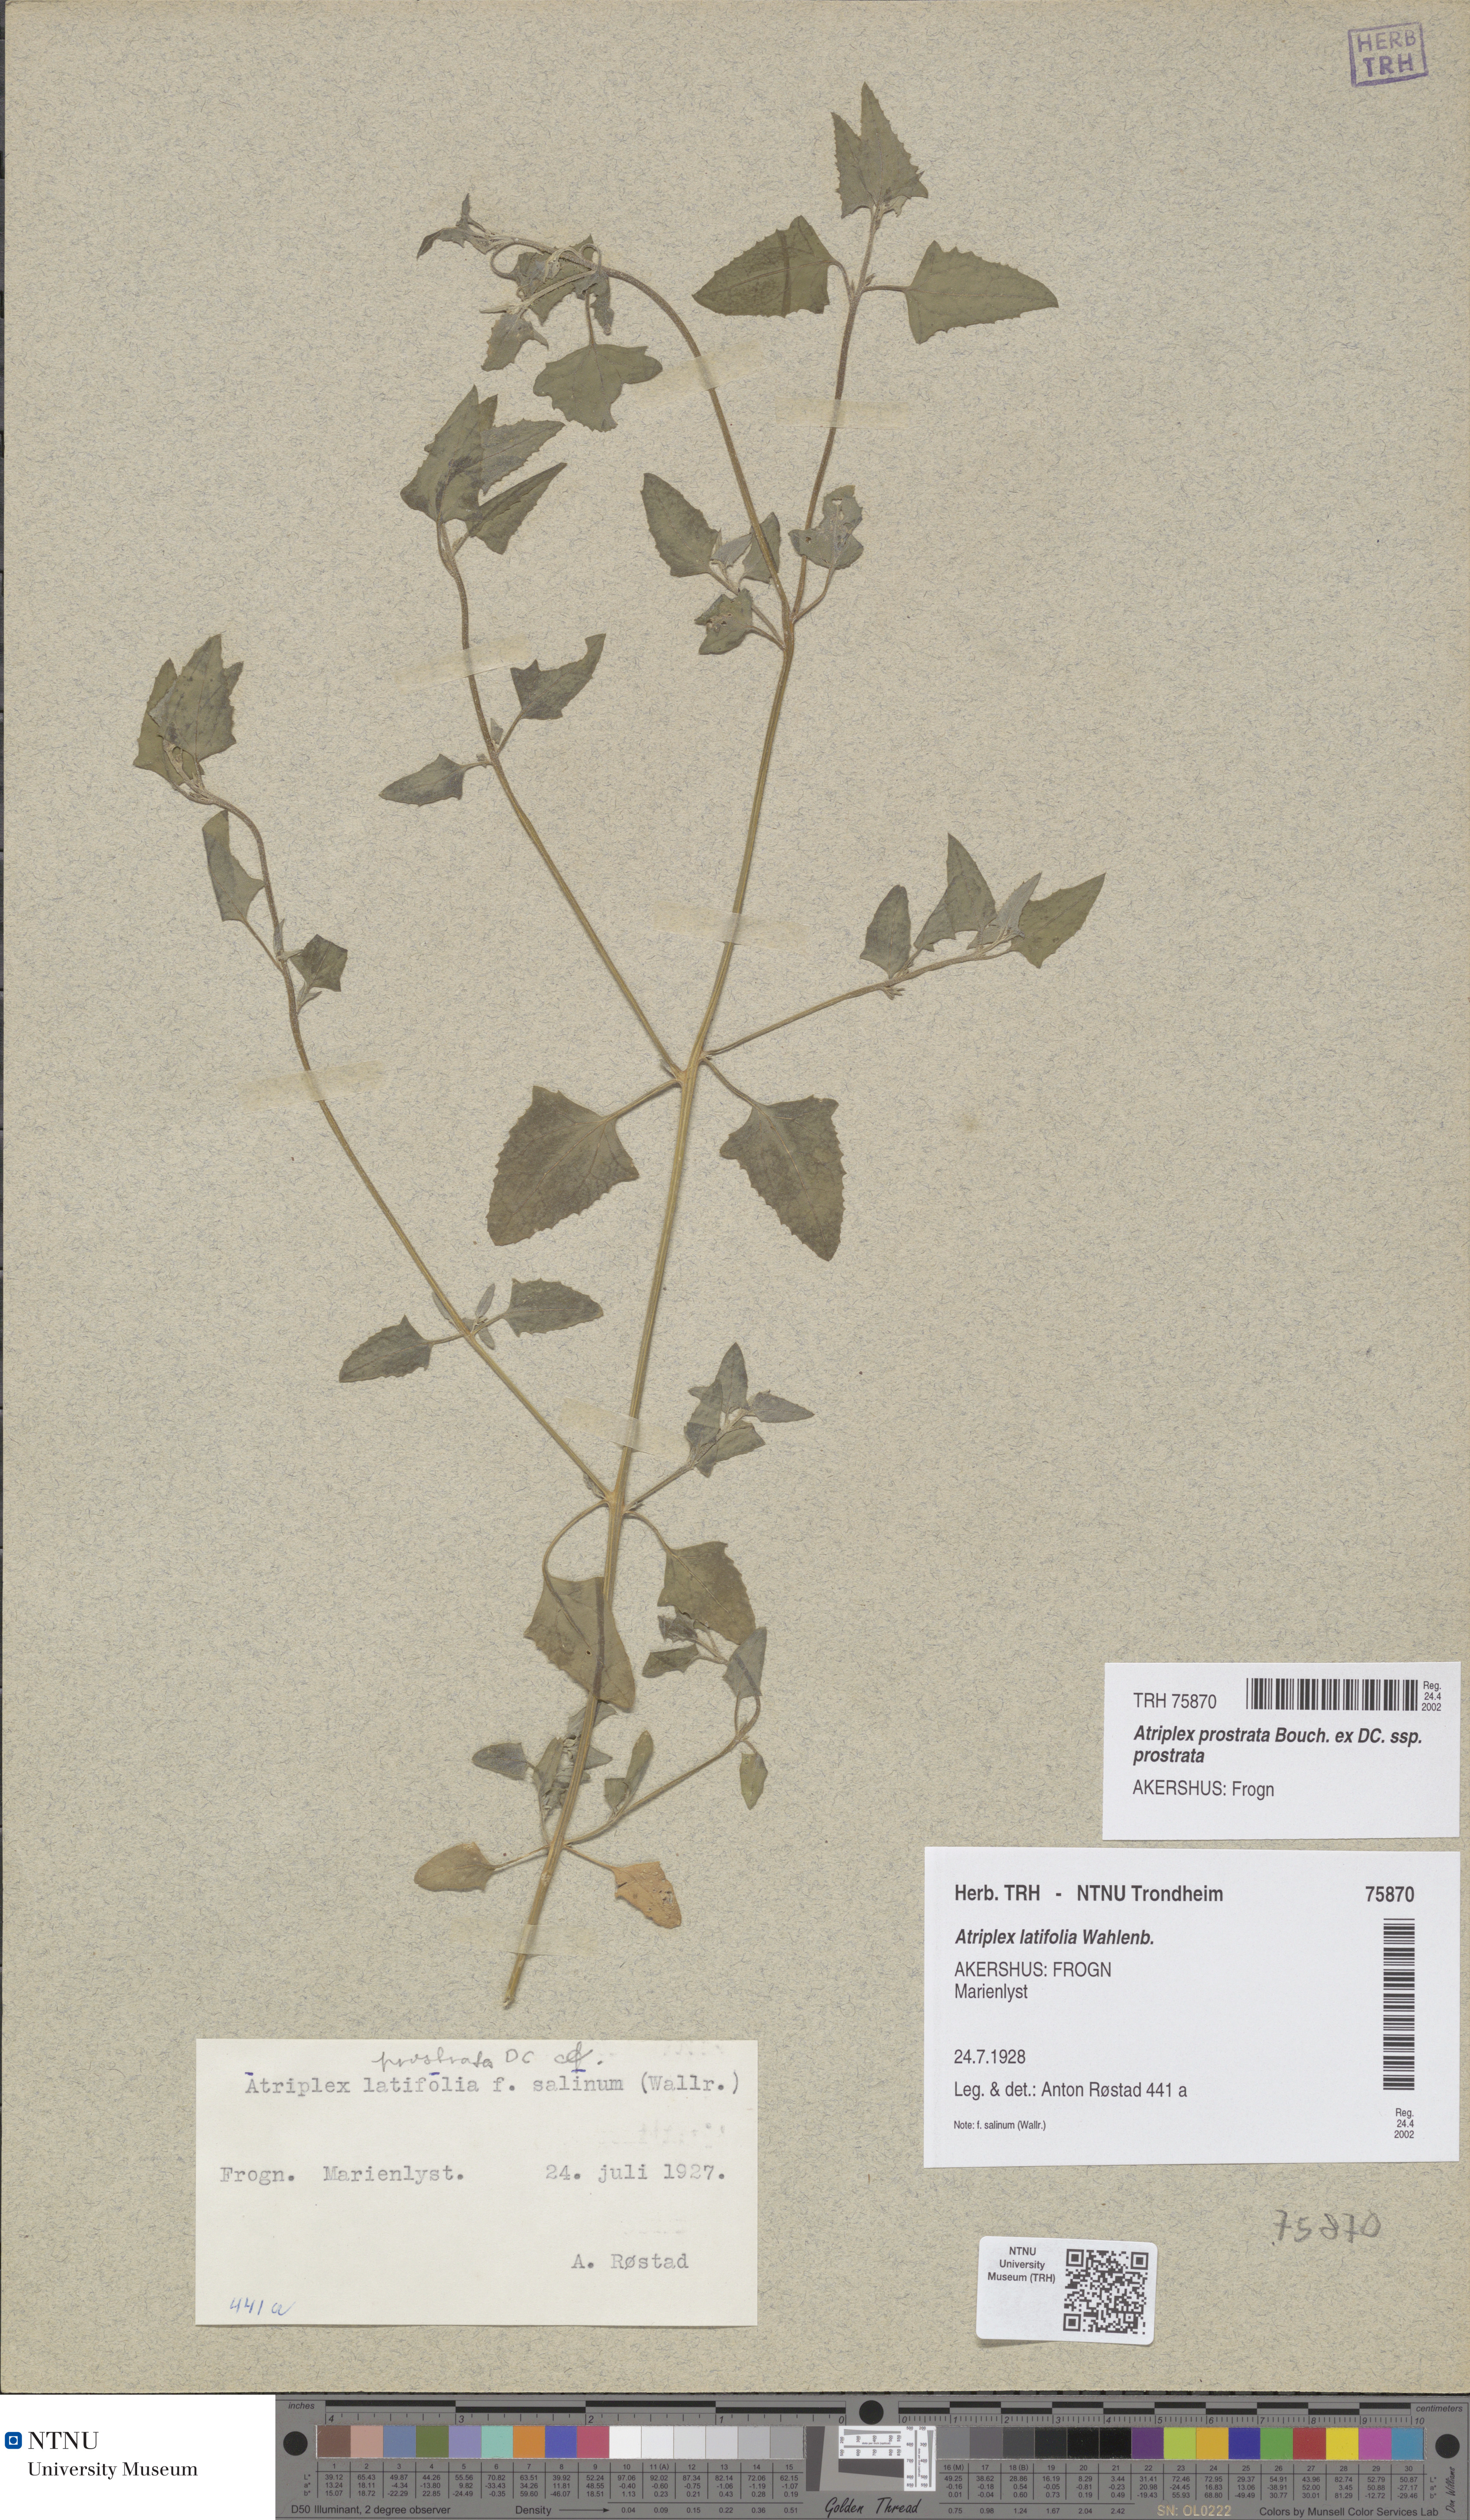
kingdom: Plantae
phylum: Tracheophyta
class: Magnoliopsida
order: Caryophyllales
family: Amaranthaceae
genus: Atriplex
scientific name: Atriplex prostrata
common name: Spear-leaved orache
